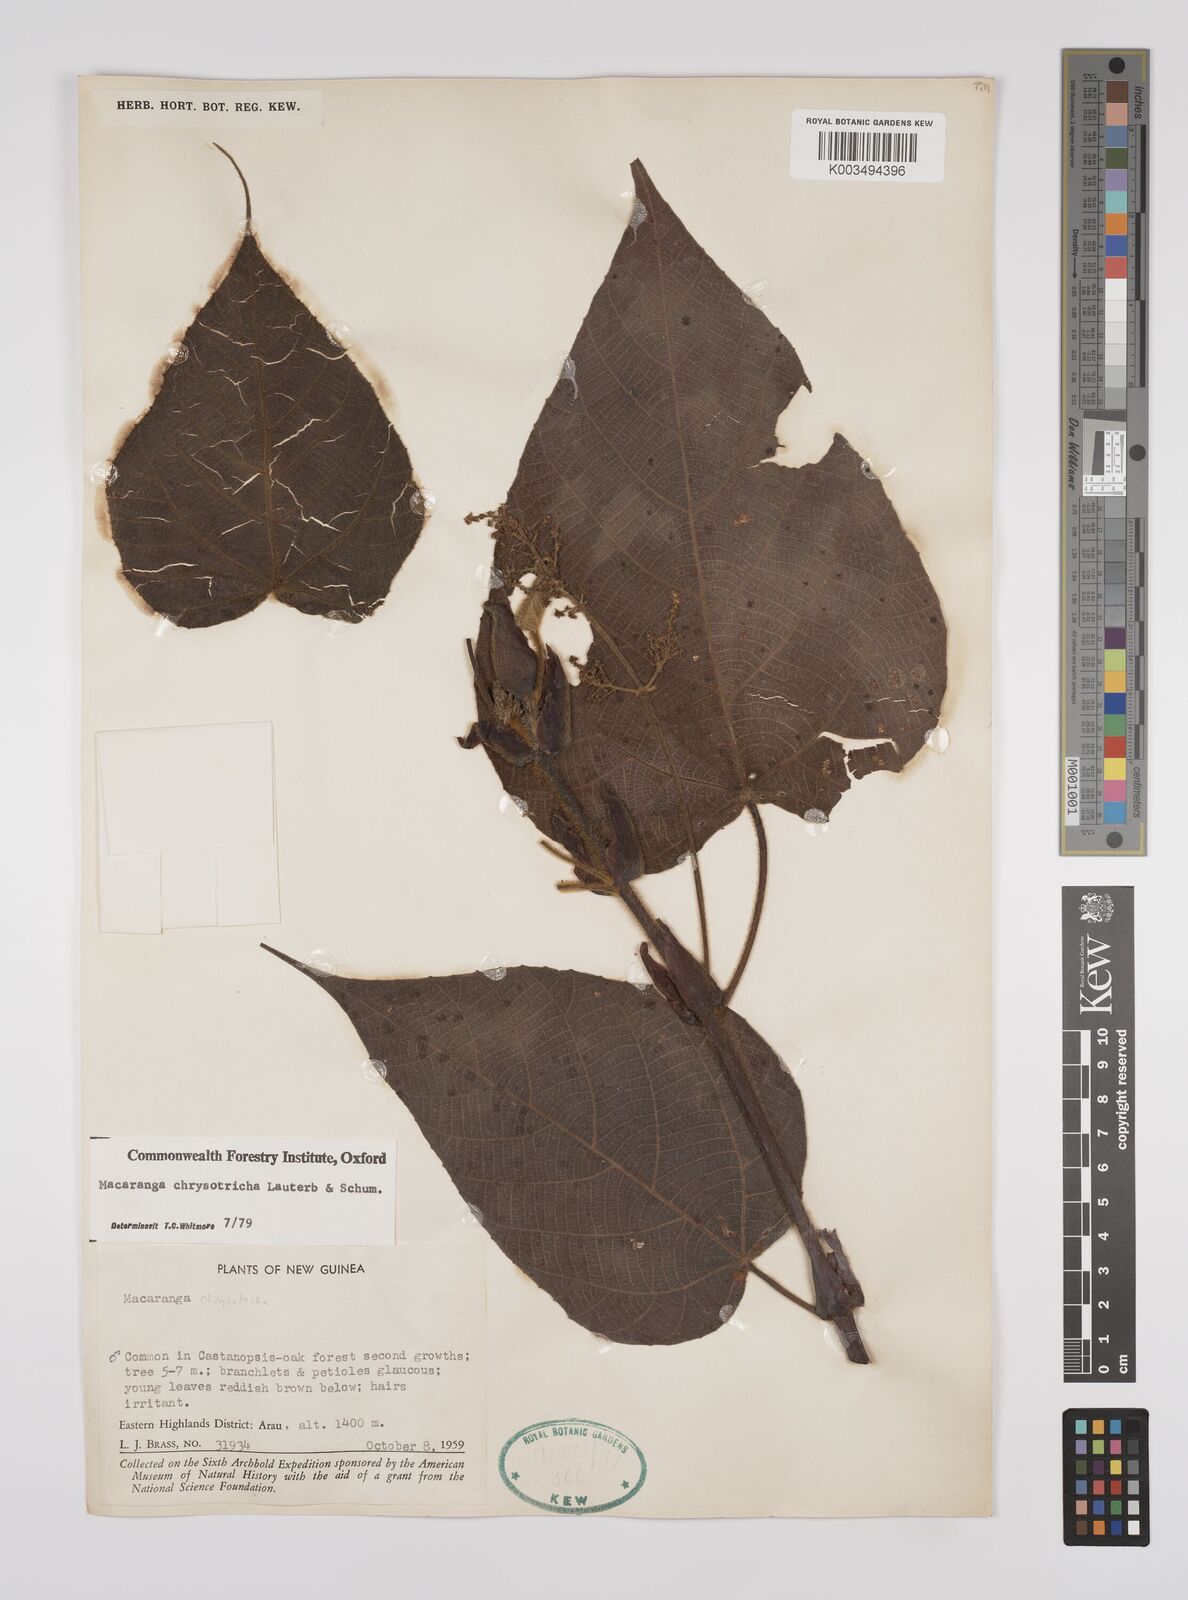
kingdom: Plantae
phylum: Tracheophyta
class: Magnoliopsida
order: Malpighiales
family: Euphorbiaceae
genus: Macaranga
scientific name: Macaranga chrysotricha
